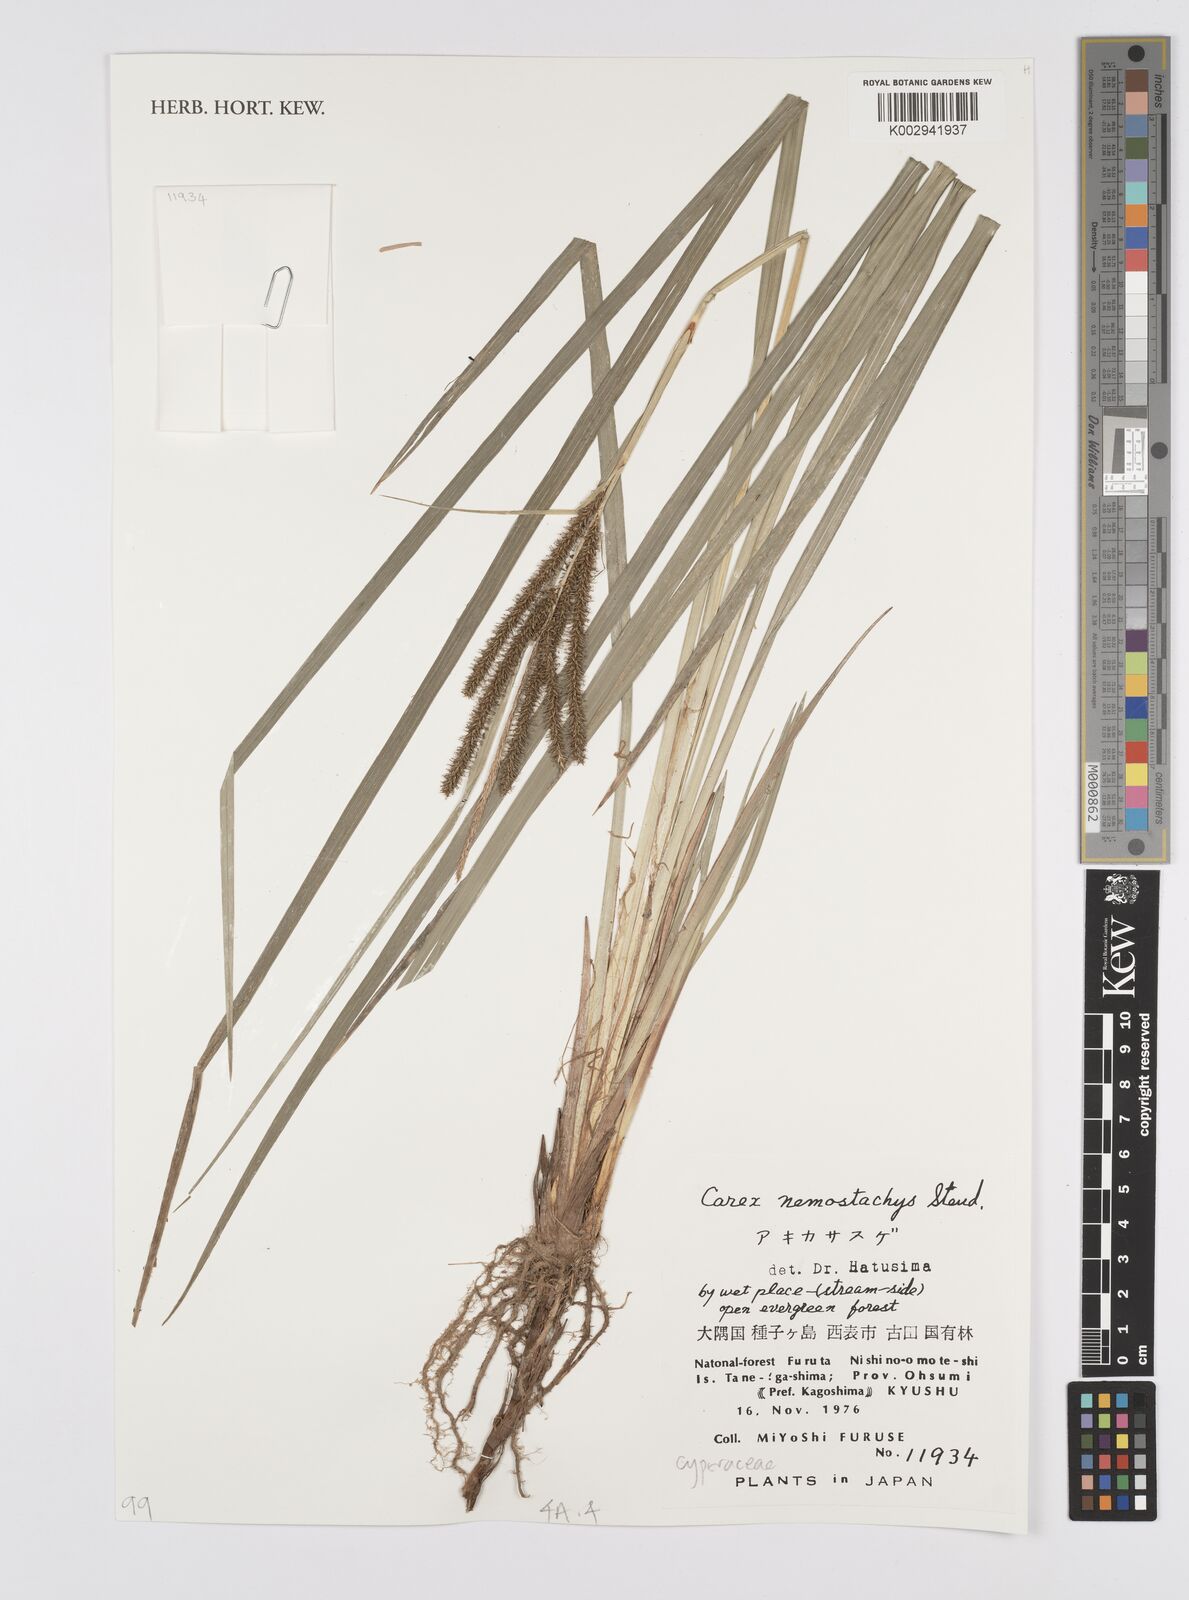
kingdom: Plantae
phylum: Tracheophyta
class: Liliopsida
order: Poales
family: Cyperaceae
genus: Carex
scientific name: Carex nemostachys
